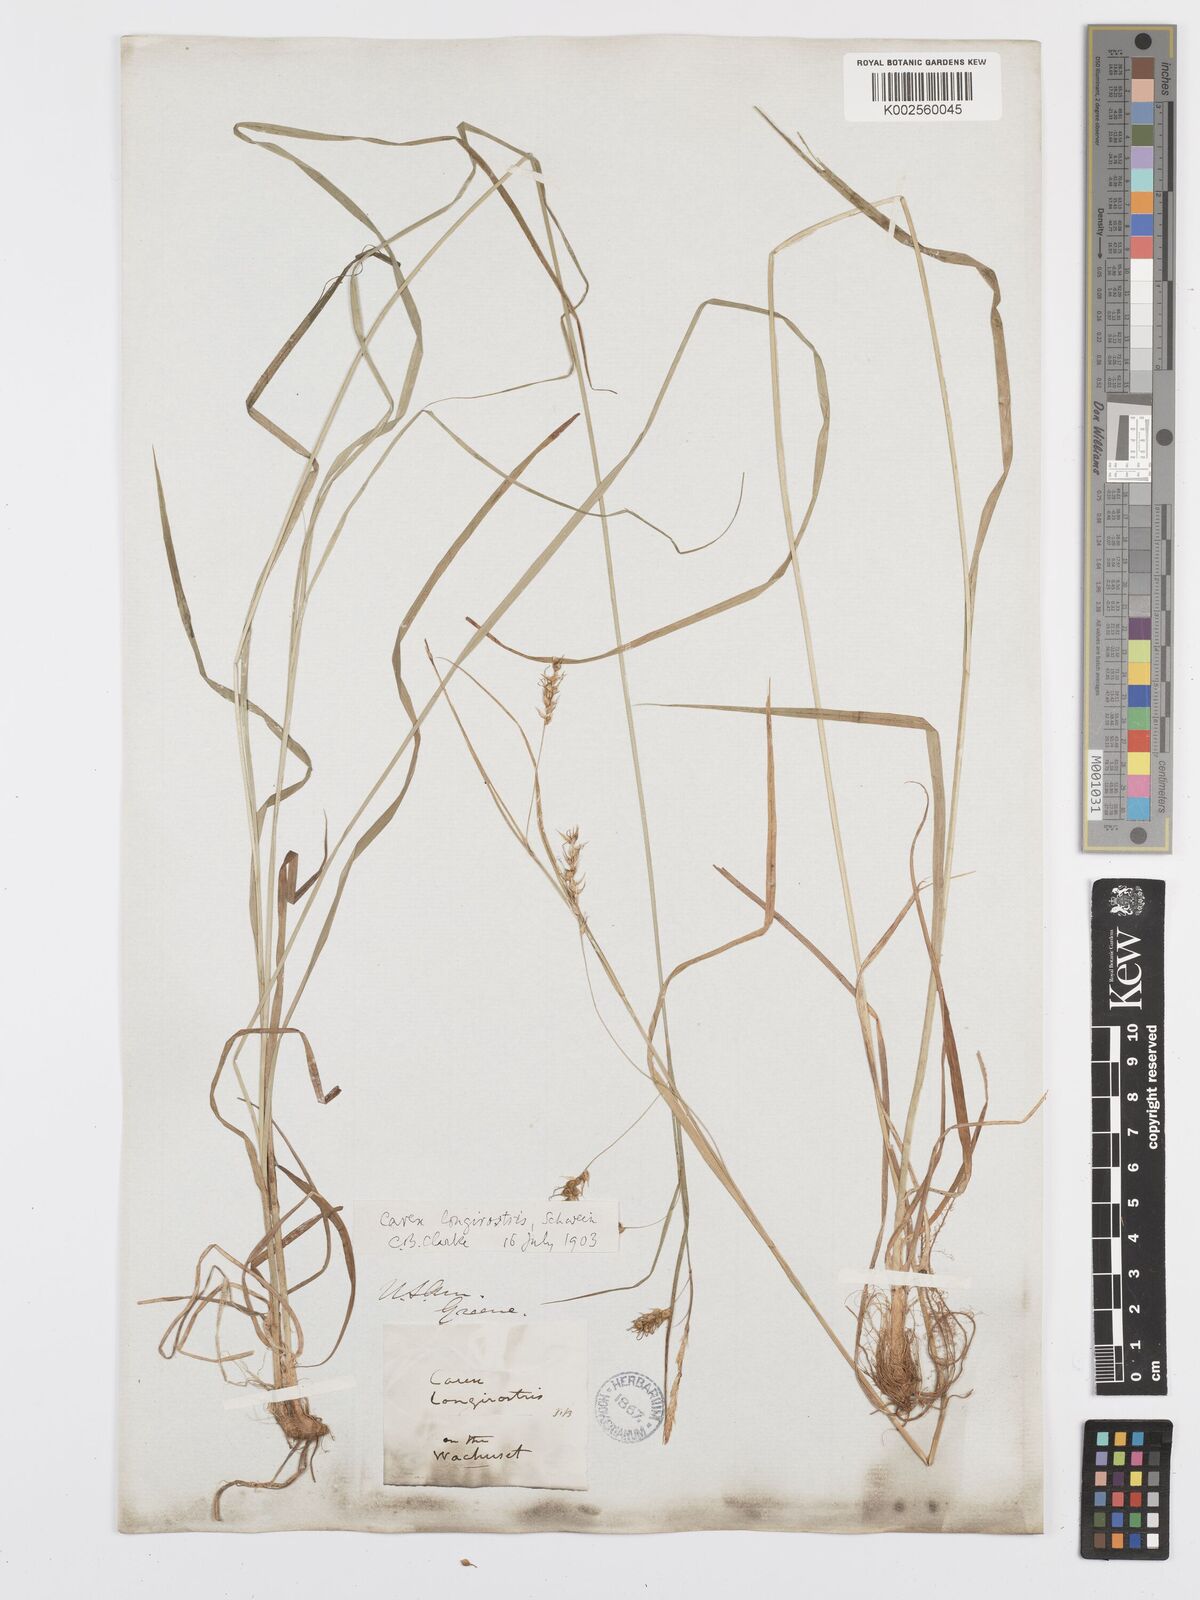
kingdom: Plantae
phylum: Tracheophyta
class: Liliopsida
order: Poales
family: Cyperaceae
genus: Carex
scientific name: Carex sprengelii
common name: Long-beaked sedge
